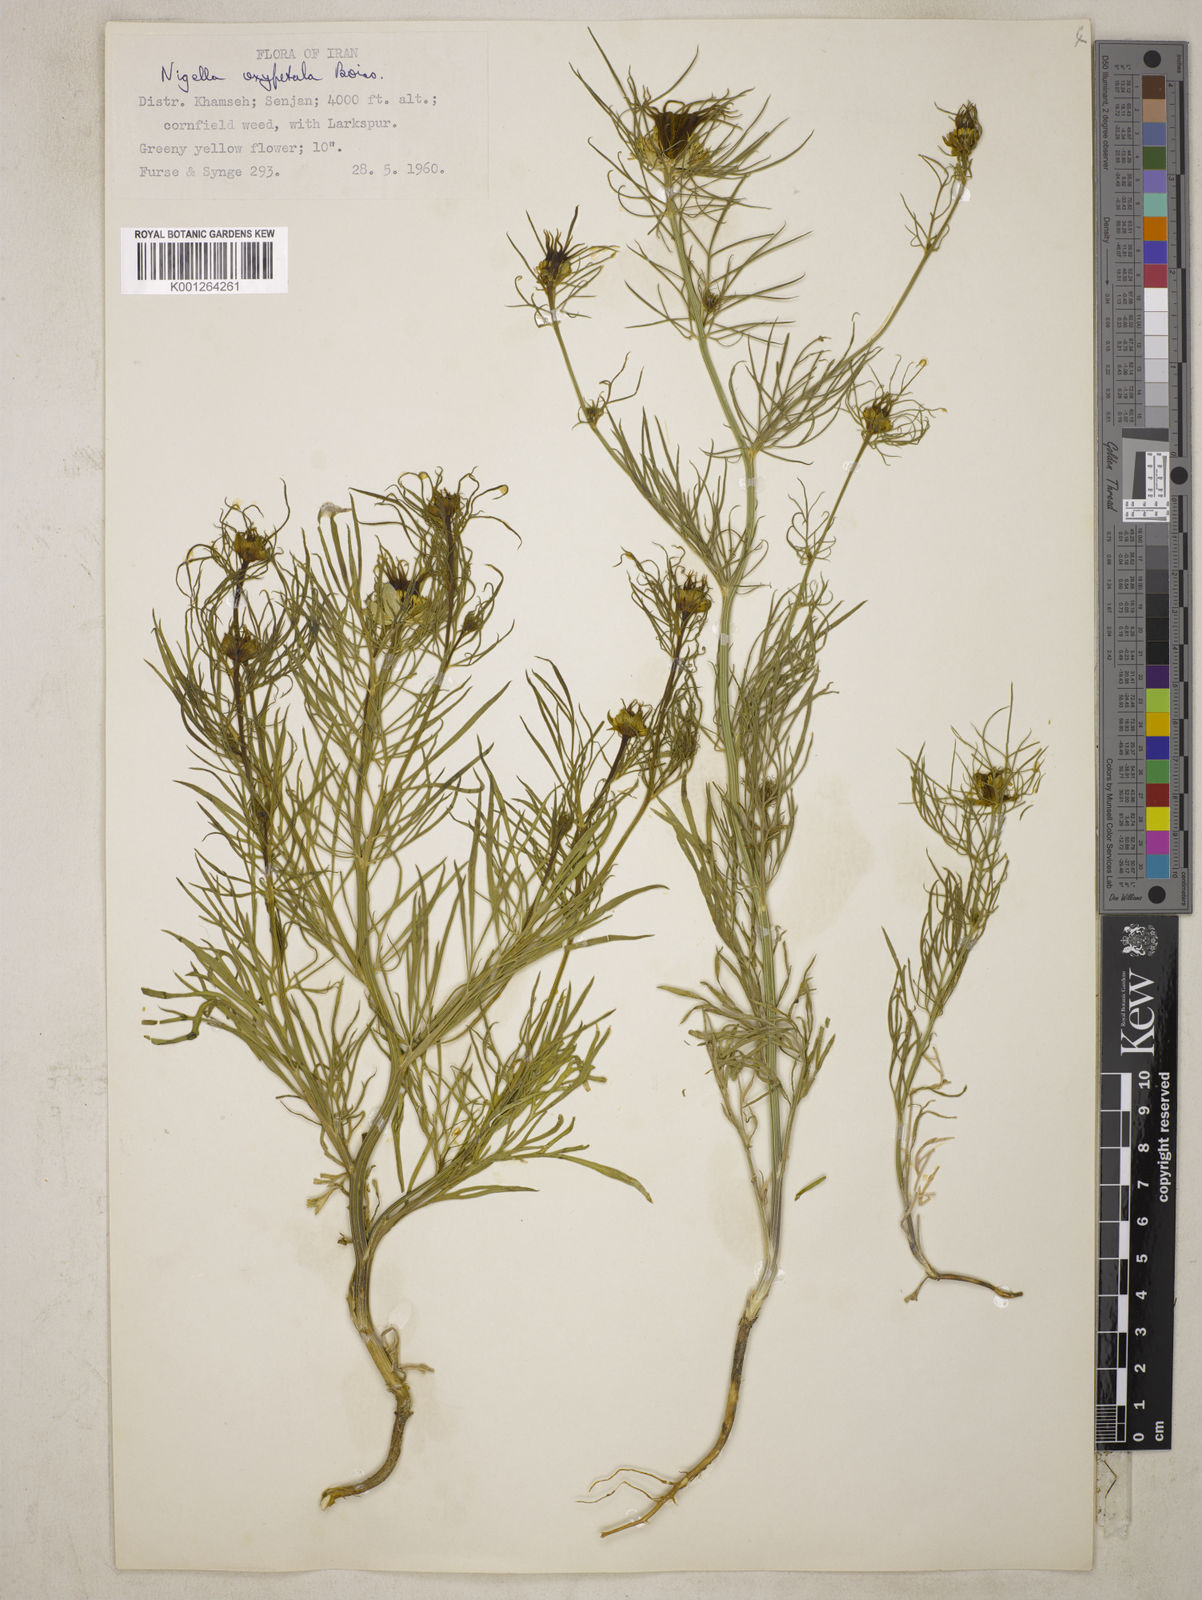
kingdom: Plantae
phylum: Tracheophyta
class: Magnoliopsida
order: Ranunculales
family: Ranunculaceae
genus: Nigella
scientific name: Nigella oxypetala
